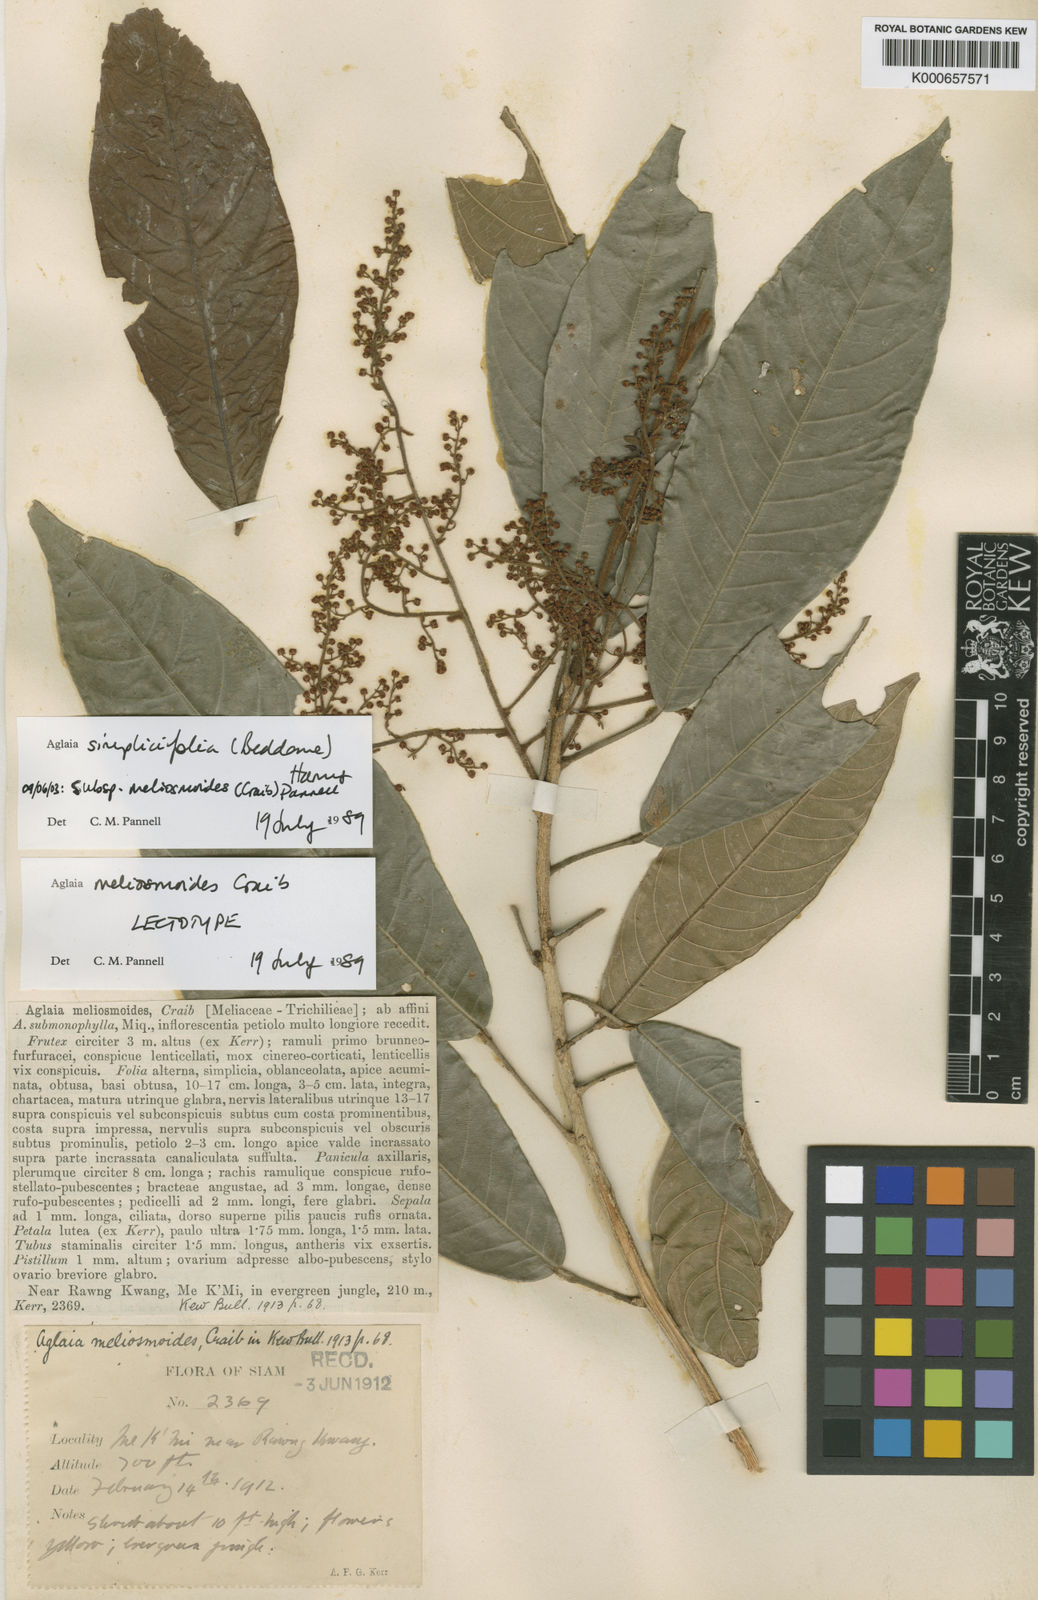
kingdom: Plantae
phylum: Tracheophyta
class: Magnoliopsida
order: Sapindales
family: Meliaceae
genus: Aglaia
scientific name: Aglaia simplicifolia
